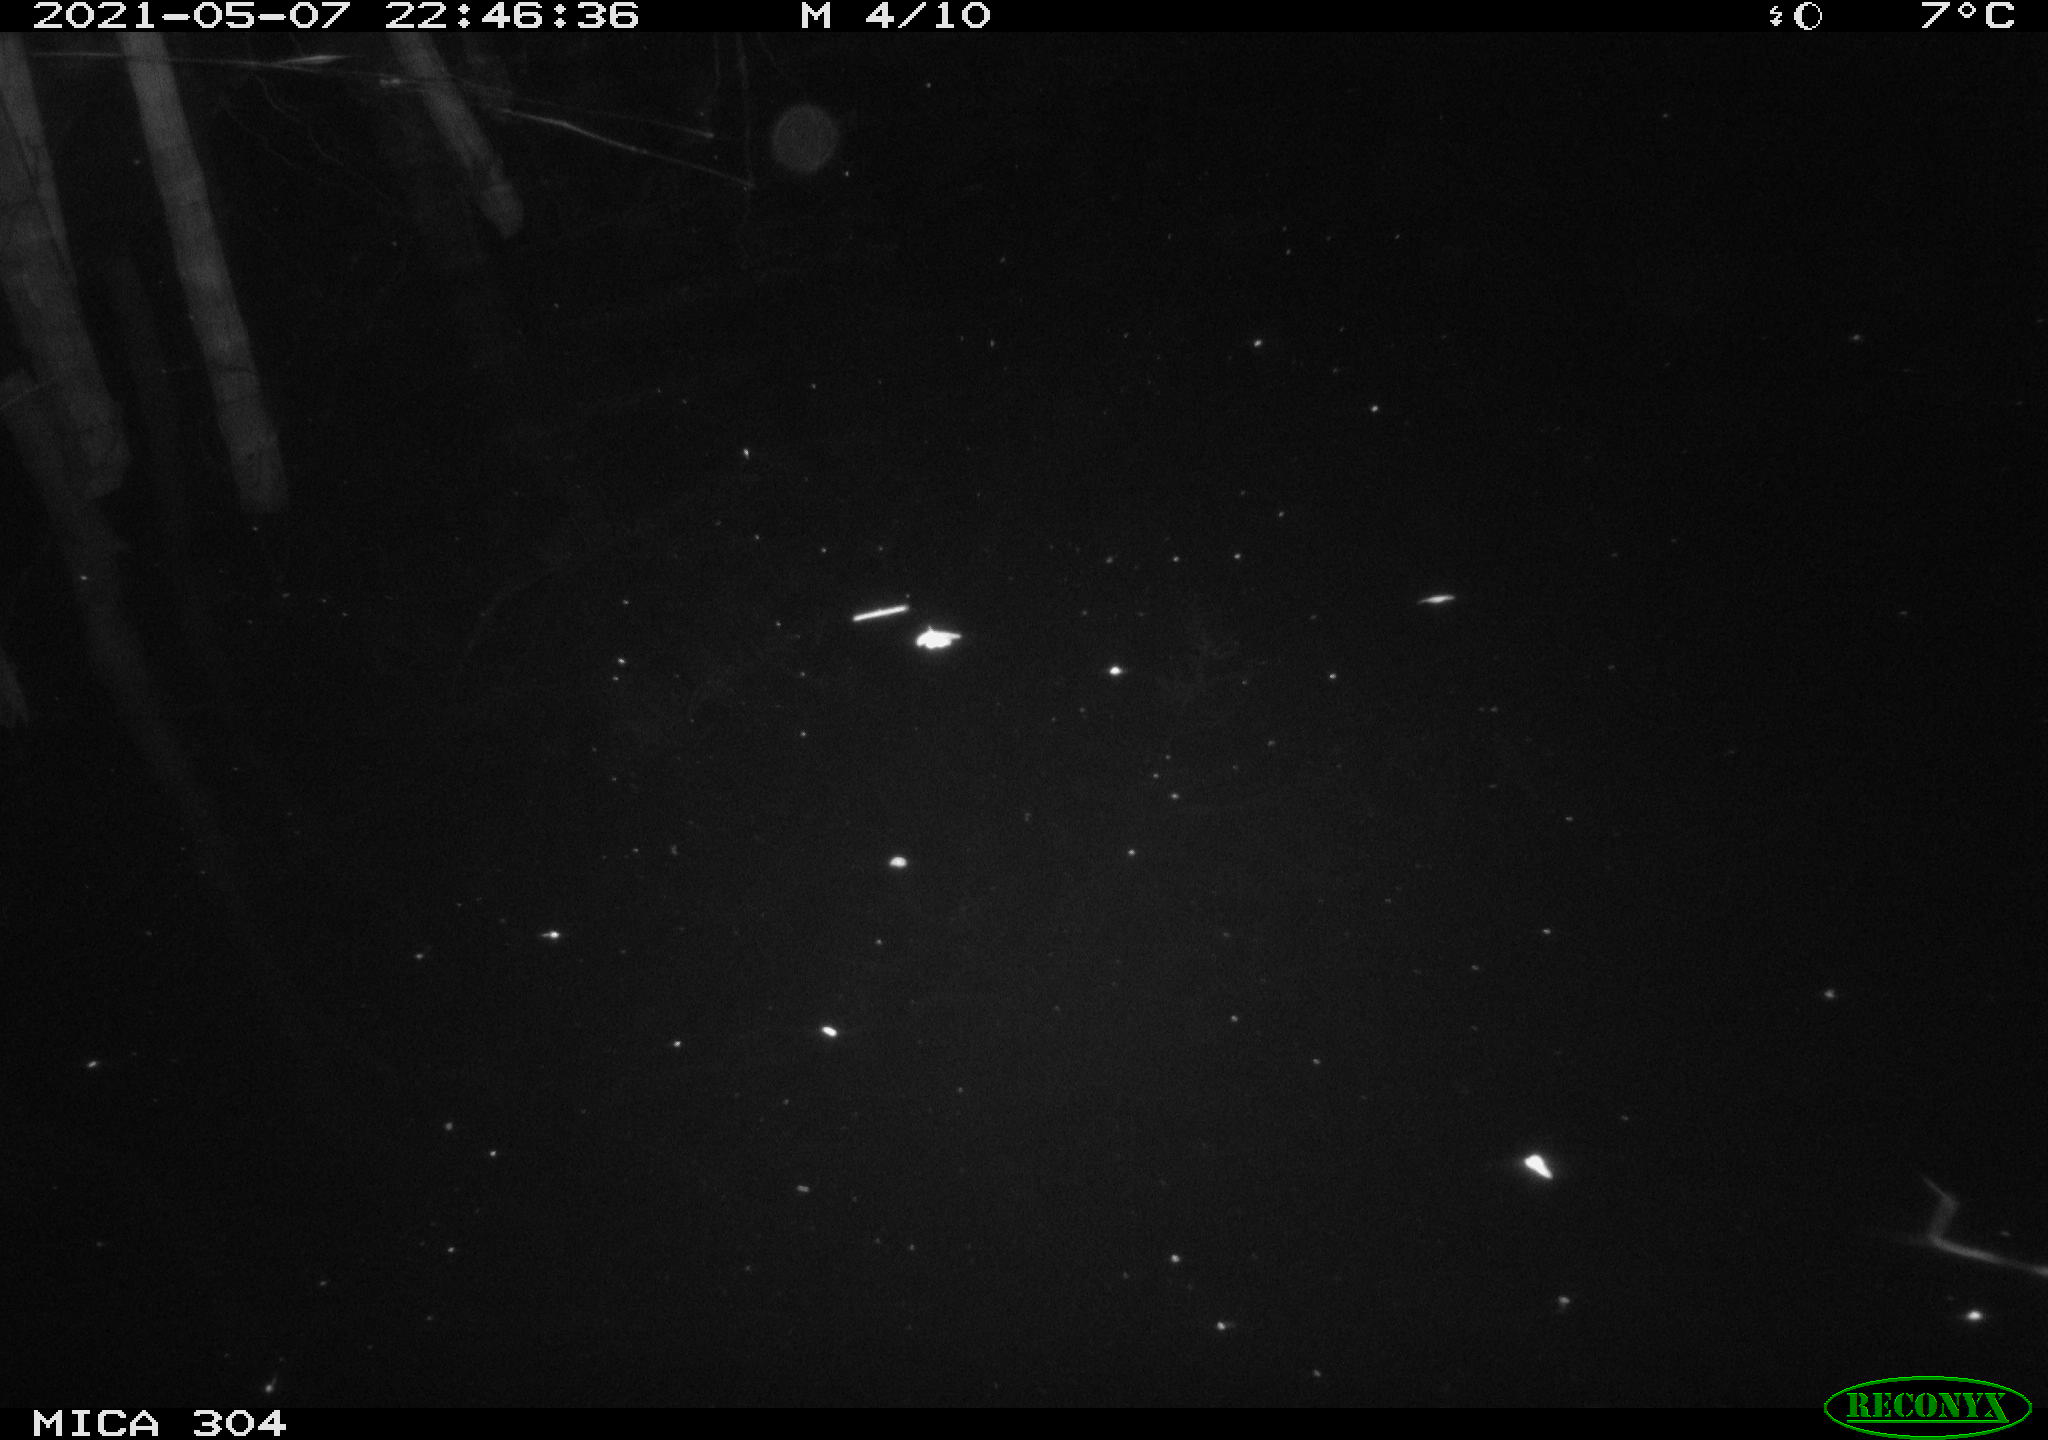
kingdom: Animalia
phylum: Chordata
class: Aves
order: Gruiformes
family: Rallidae
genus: Fulica
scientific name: Fulica atra
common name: Eurasian coot
